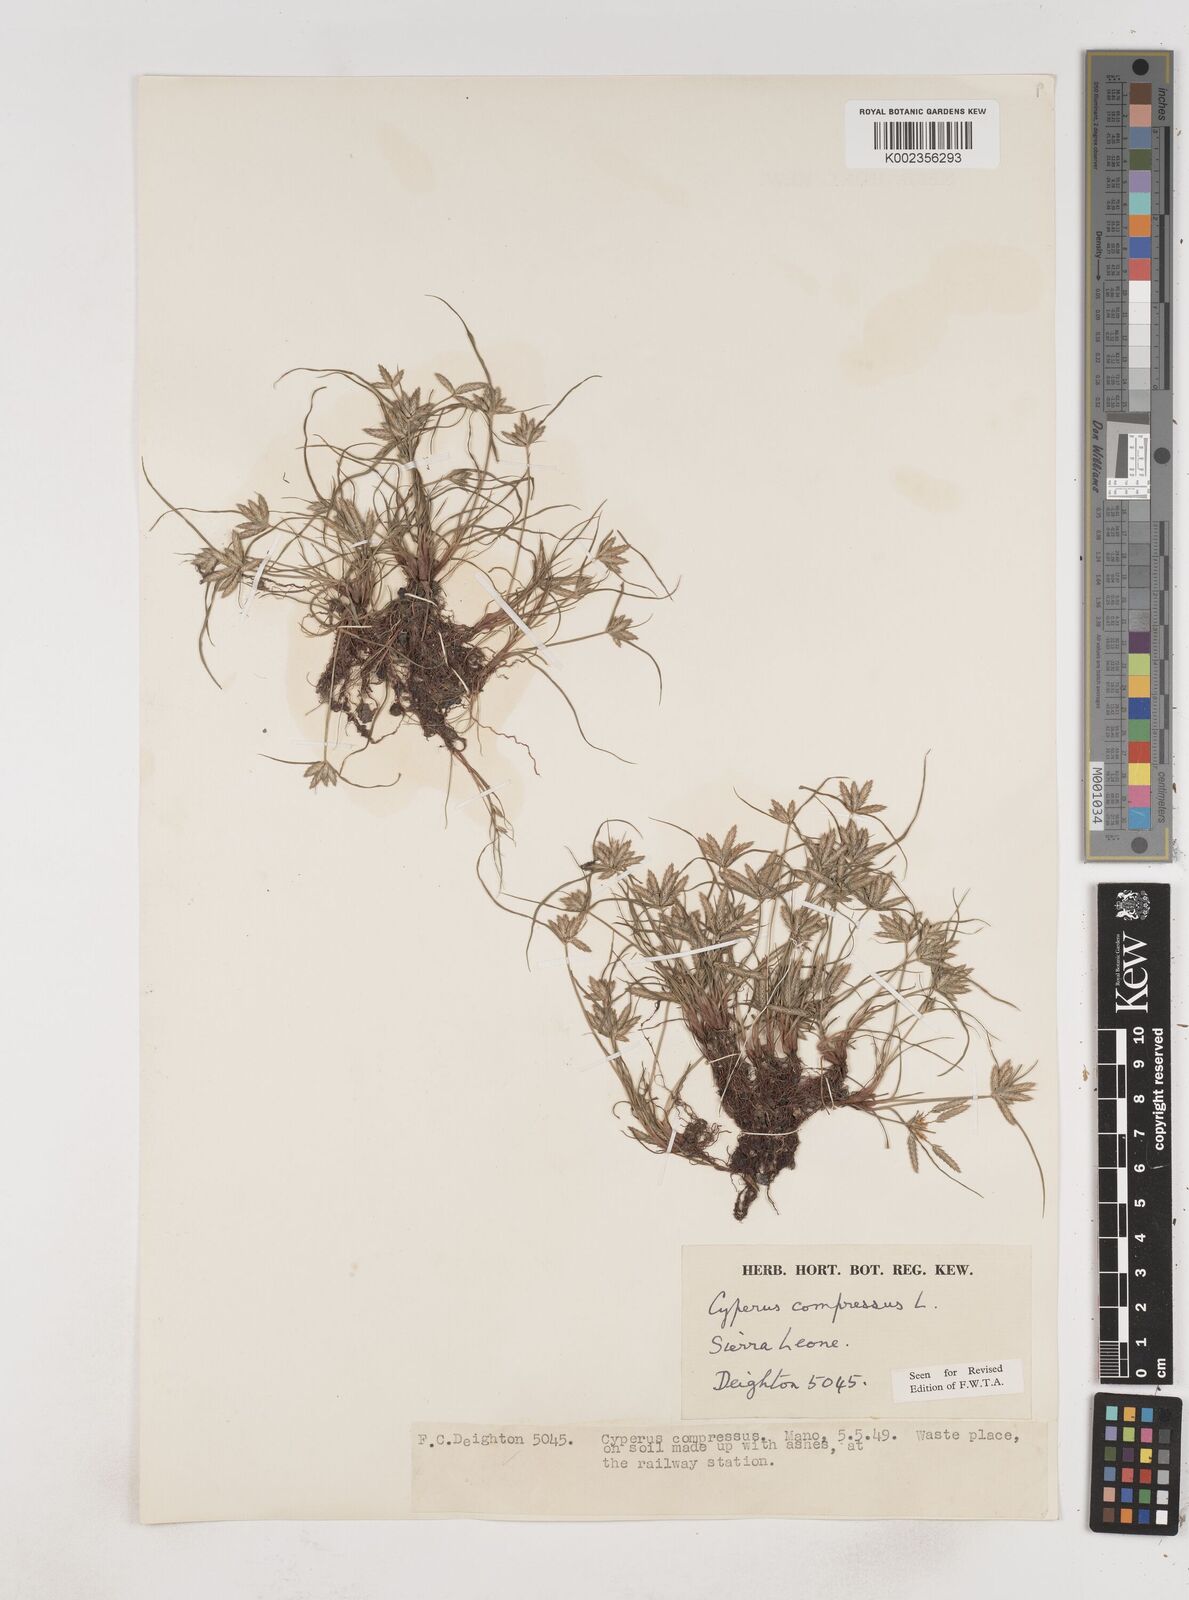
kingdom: Plantae
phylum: Tracheophyta
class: Liliopsida
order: Poales
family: Cyperaceae
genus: Cyperus
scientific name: Cyperus compressus
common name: Poorland flatsedge
